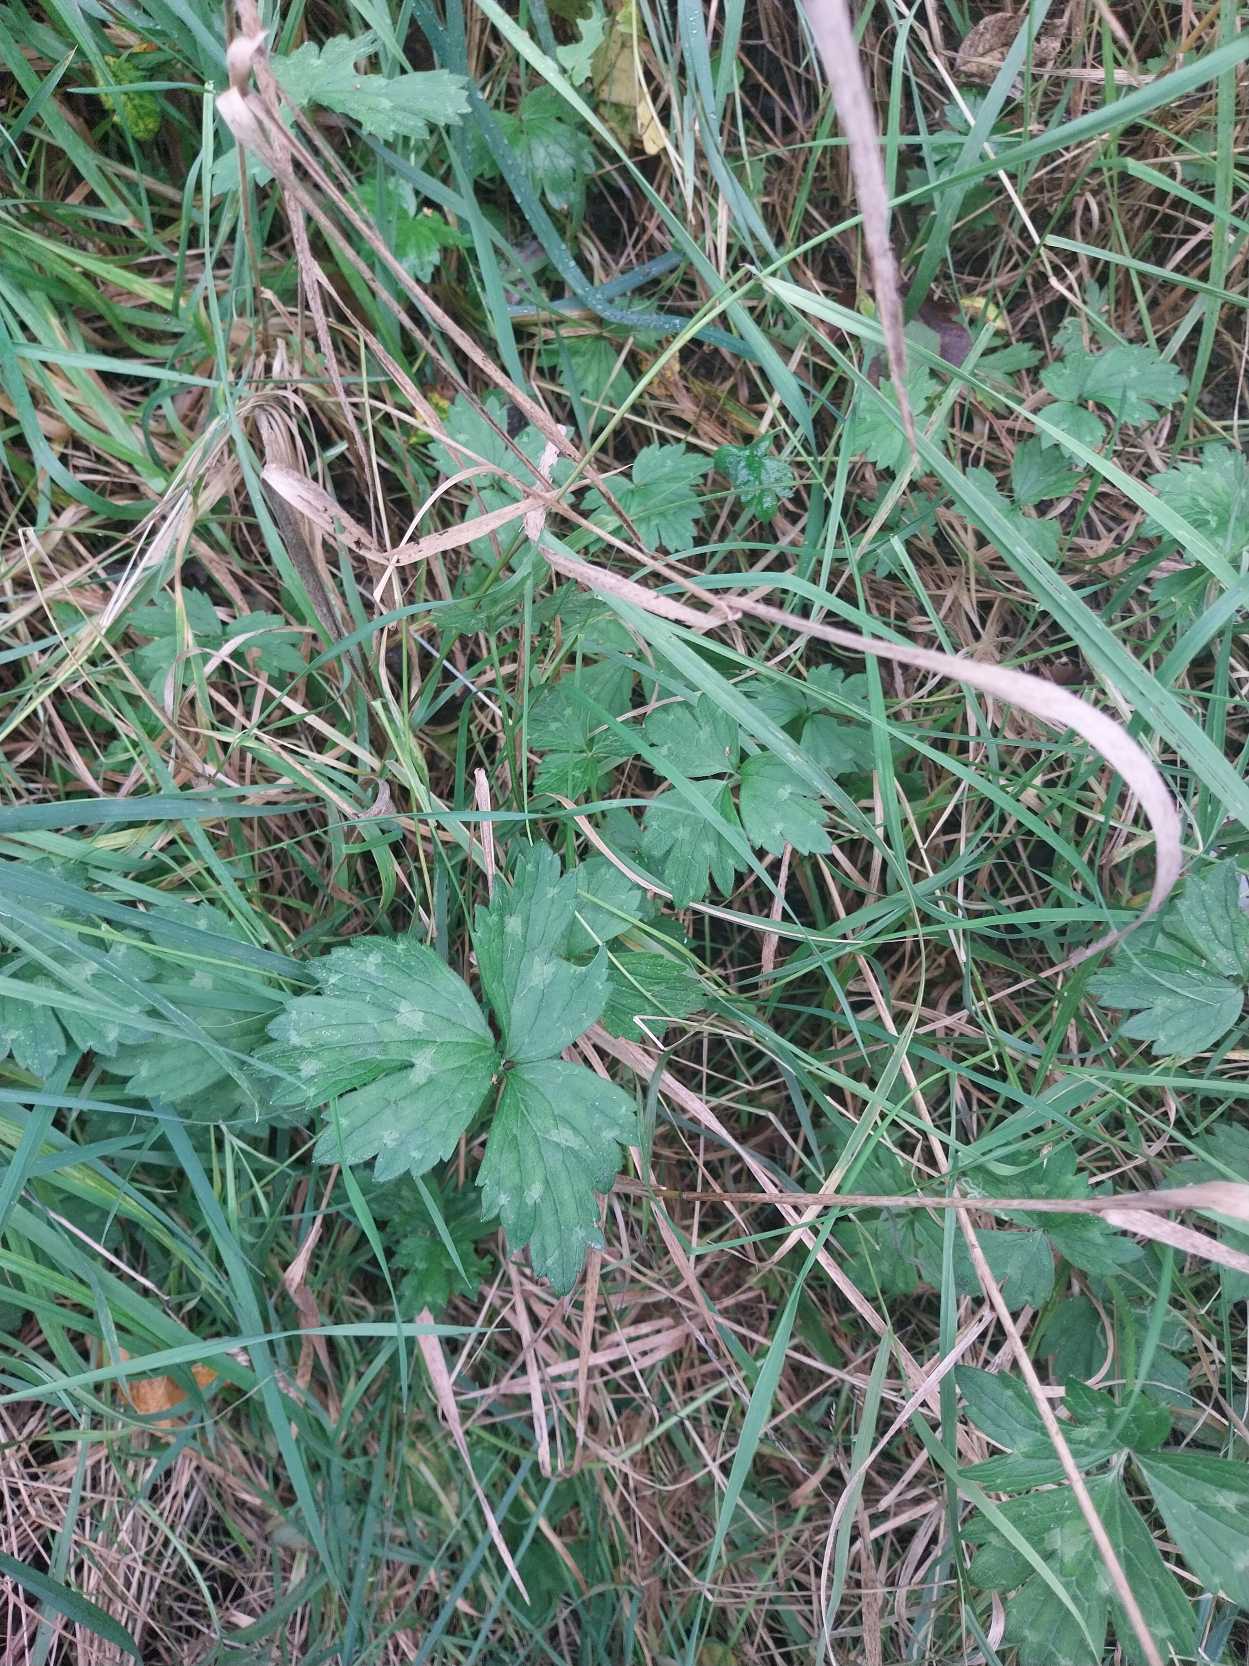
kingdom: Plantae
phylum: Tracheophyta
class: Magnoliopsida
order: Ranunculales
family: Ranunculaceae
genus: Ranunculus
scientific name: Ranunculus repens
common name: Lav ranunkel
